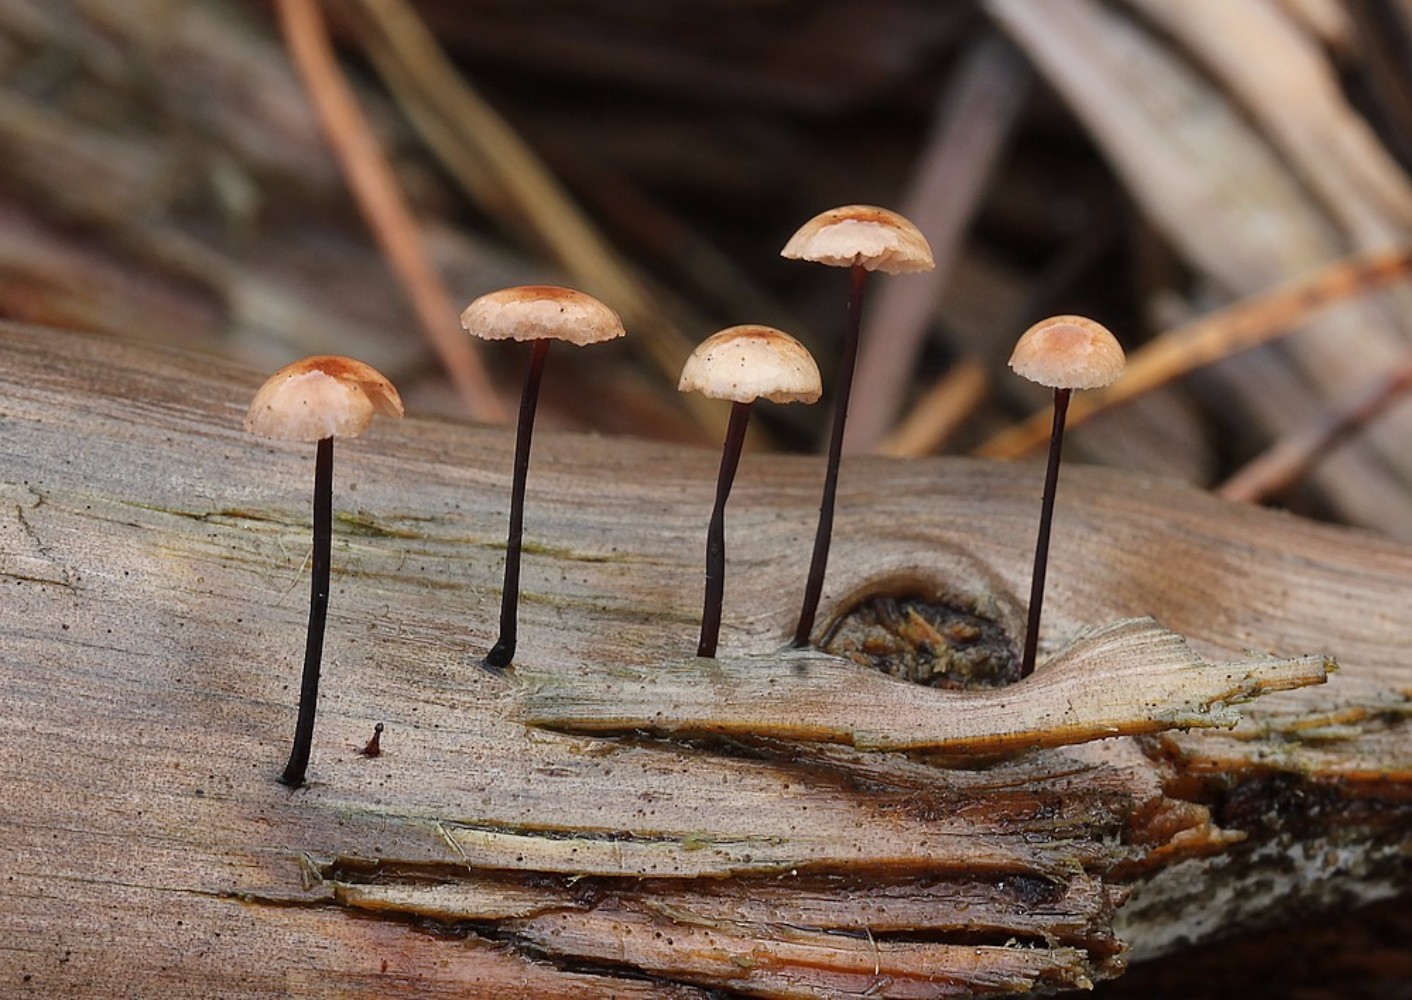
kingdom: Fungi
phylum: Basidiomycota
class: Agaricomycetes
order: Agaricales
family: Omphalotaceae
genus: Gymnopus
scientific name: Gymnopus androsaceus
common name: trådstokket fladhat
